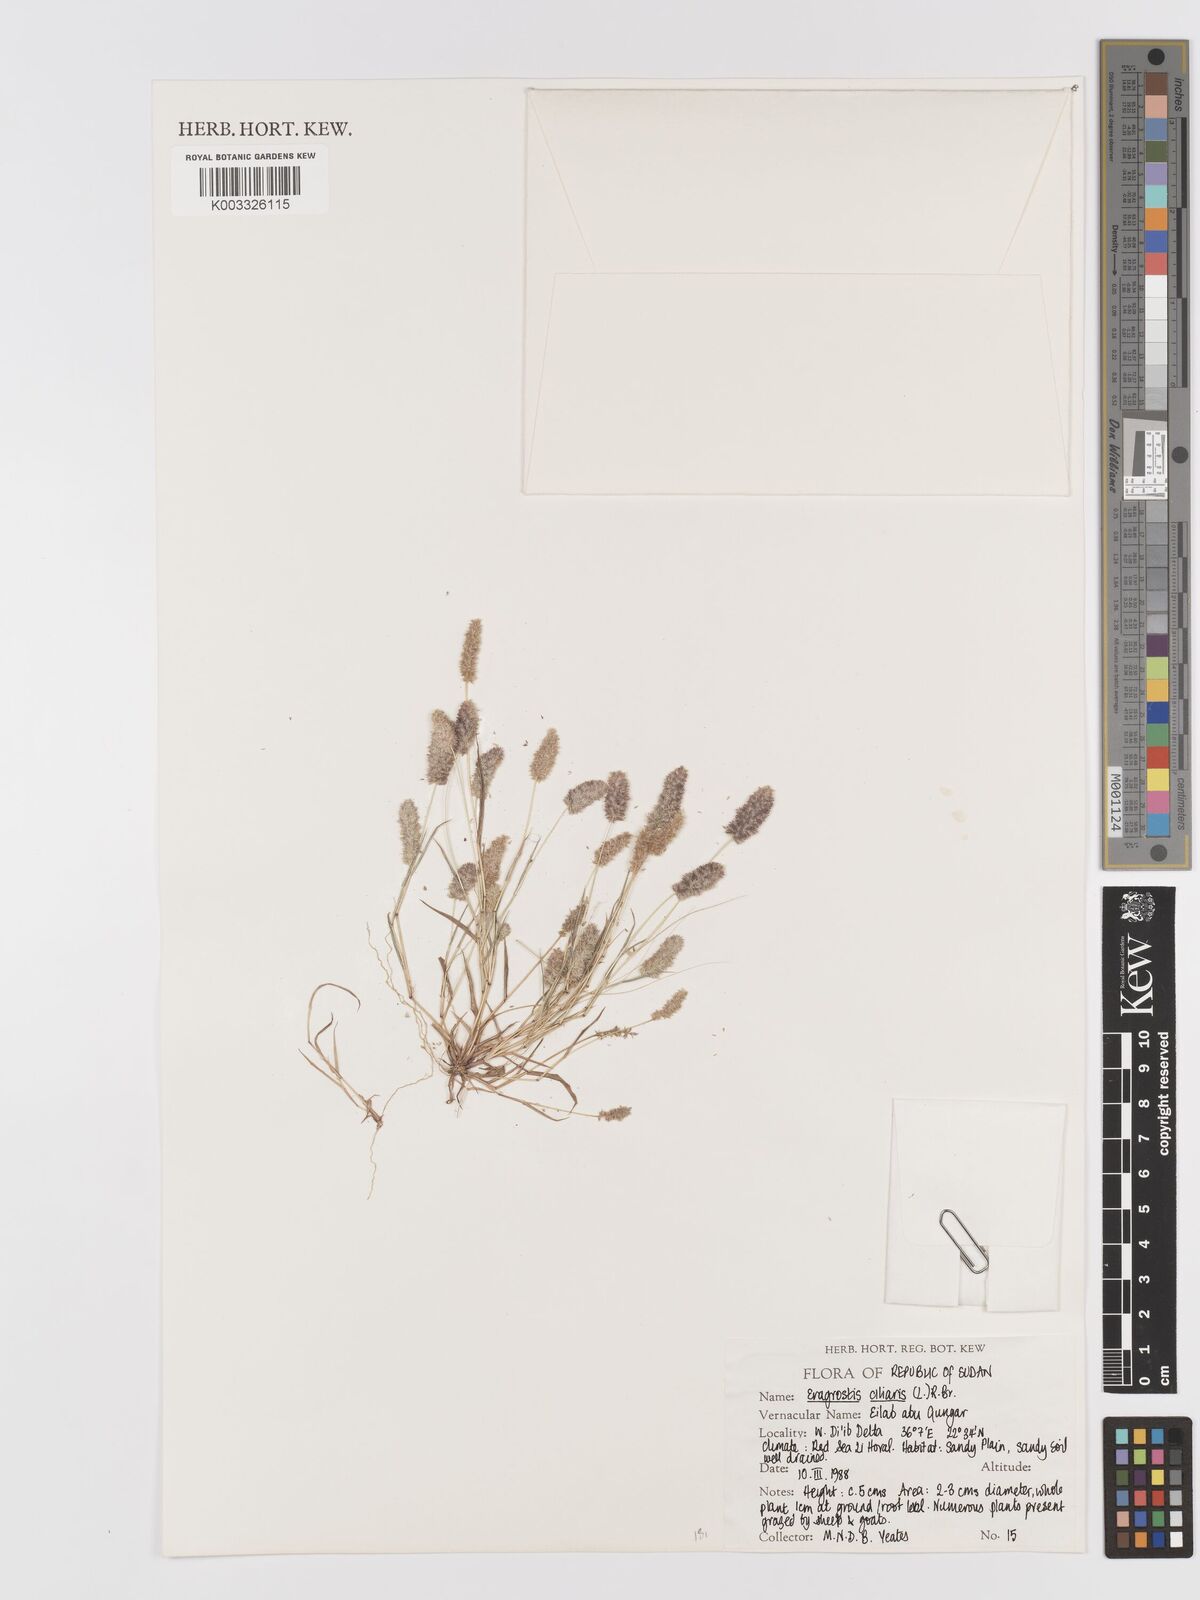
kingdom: Plantae
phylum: Tracheophyta
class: Liliopsida
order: Poales
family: Poaceae
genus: Eragrostis
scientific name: Eragrostis ciliaris
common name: Gophertail lovegrass
